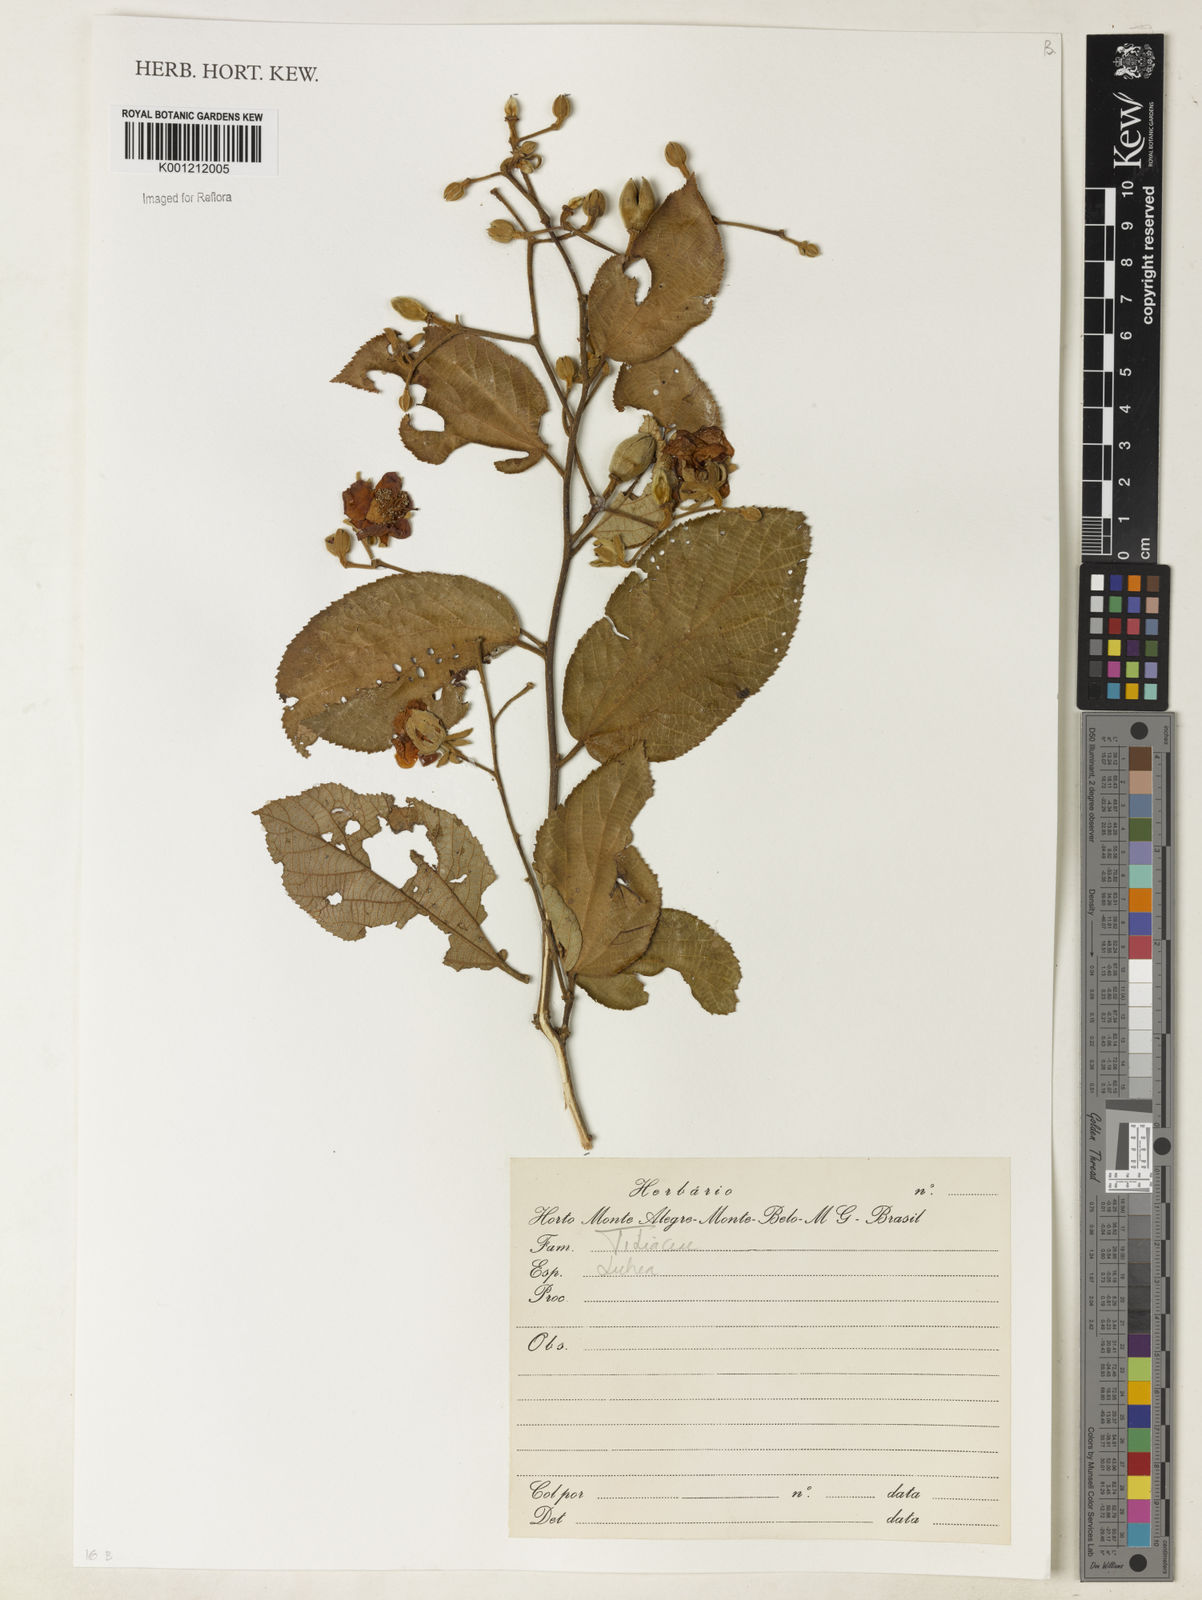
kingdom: Plantae
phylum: Tracheophyta
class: Magnoliopsida
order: Malvales
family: Malvaceae
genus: Luehea
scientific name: Luehea
